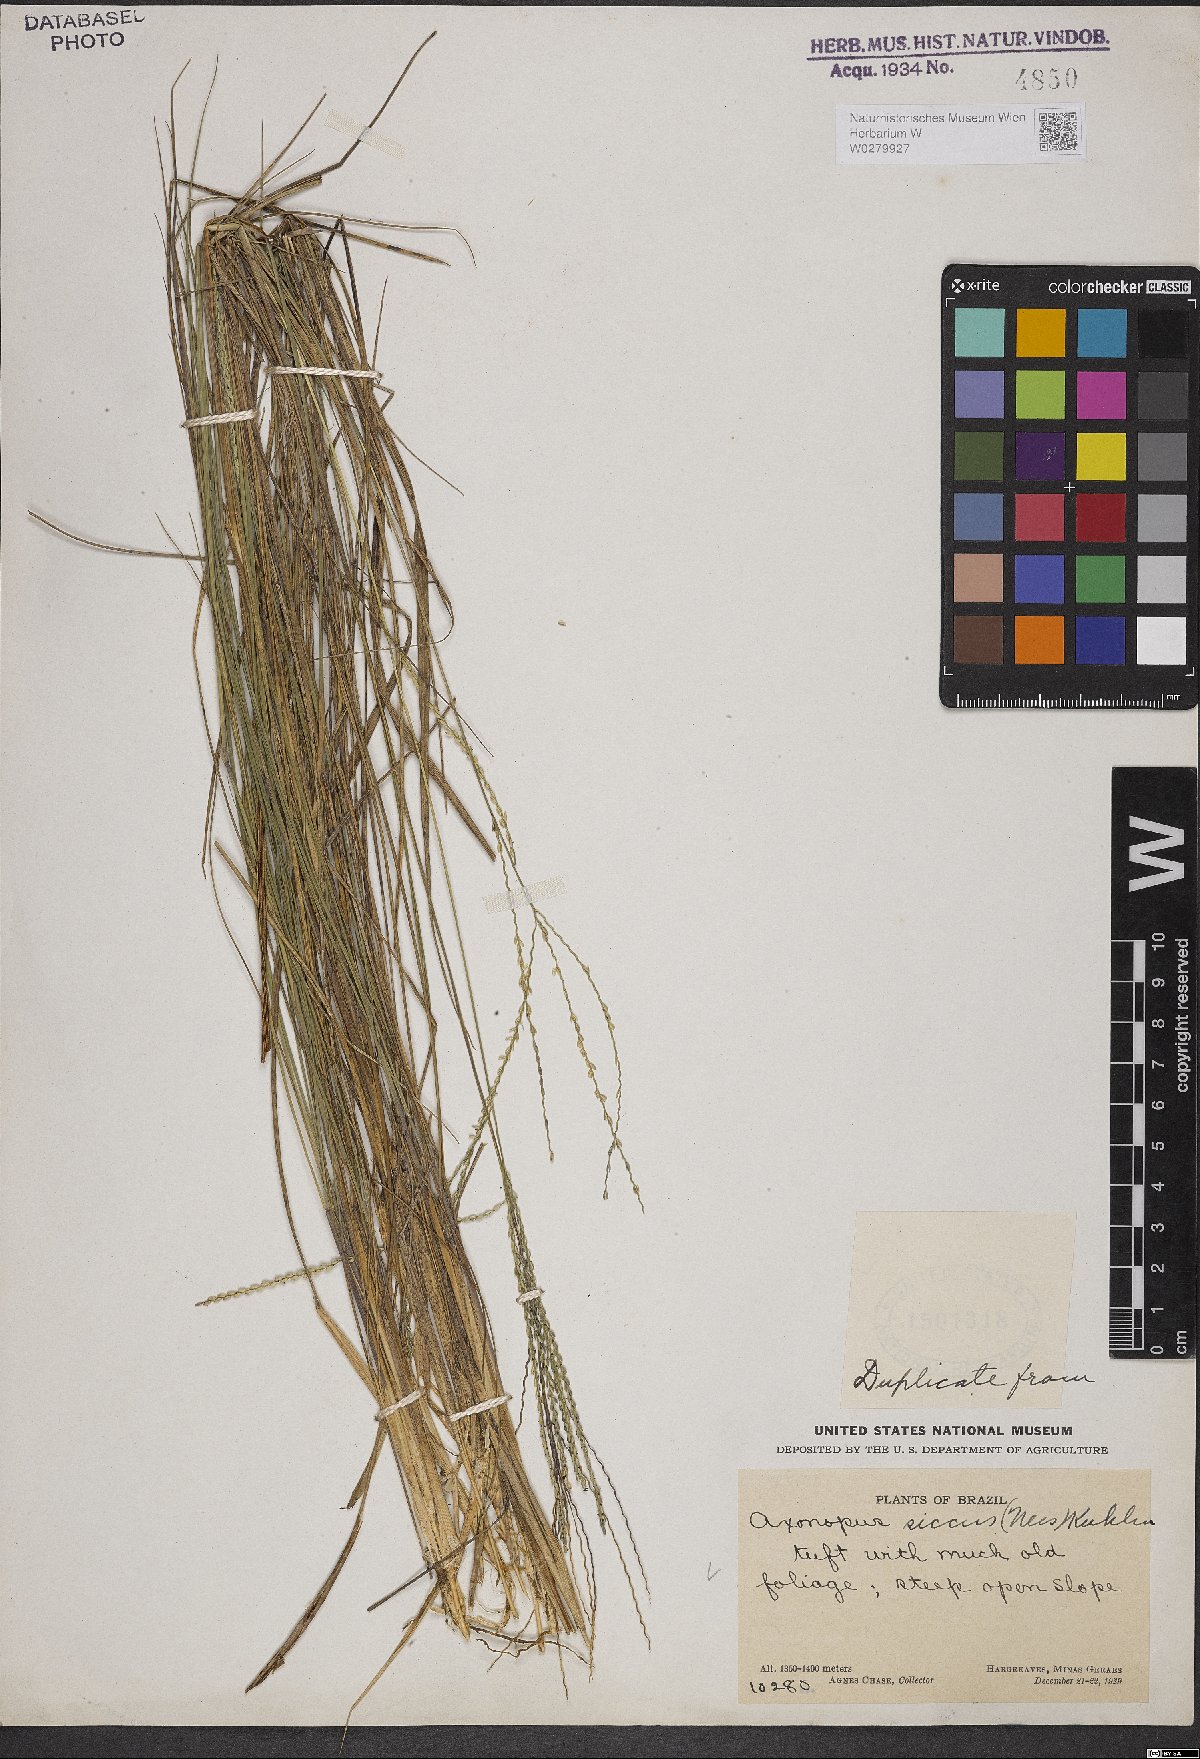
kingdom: Plantae
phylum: Tracheophyta
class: Liliopsida
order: Poales
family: Poaceae
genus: Axonopus
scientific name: Axonopus siccus
